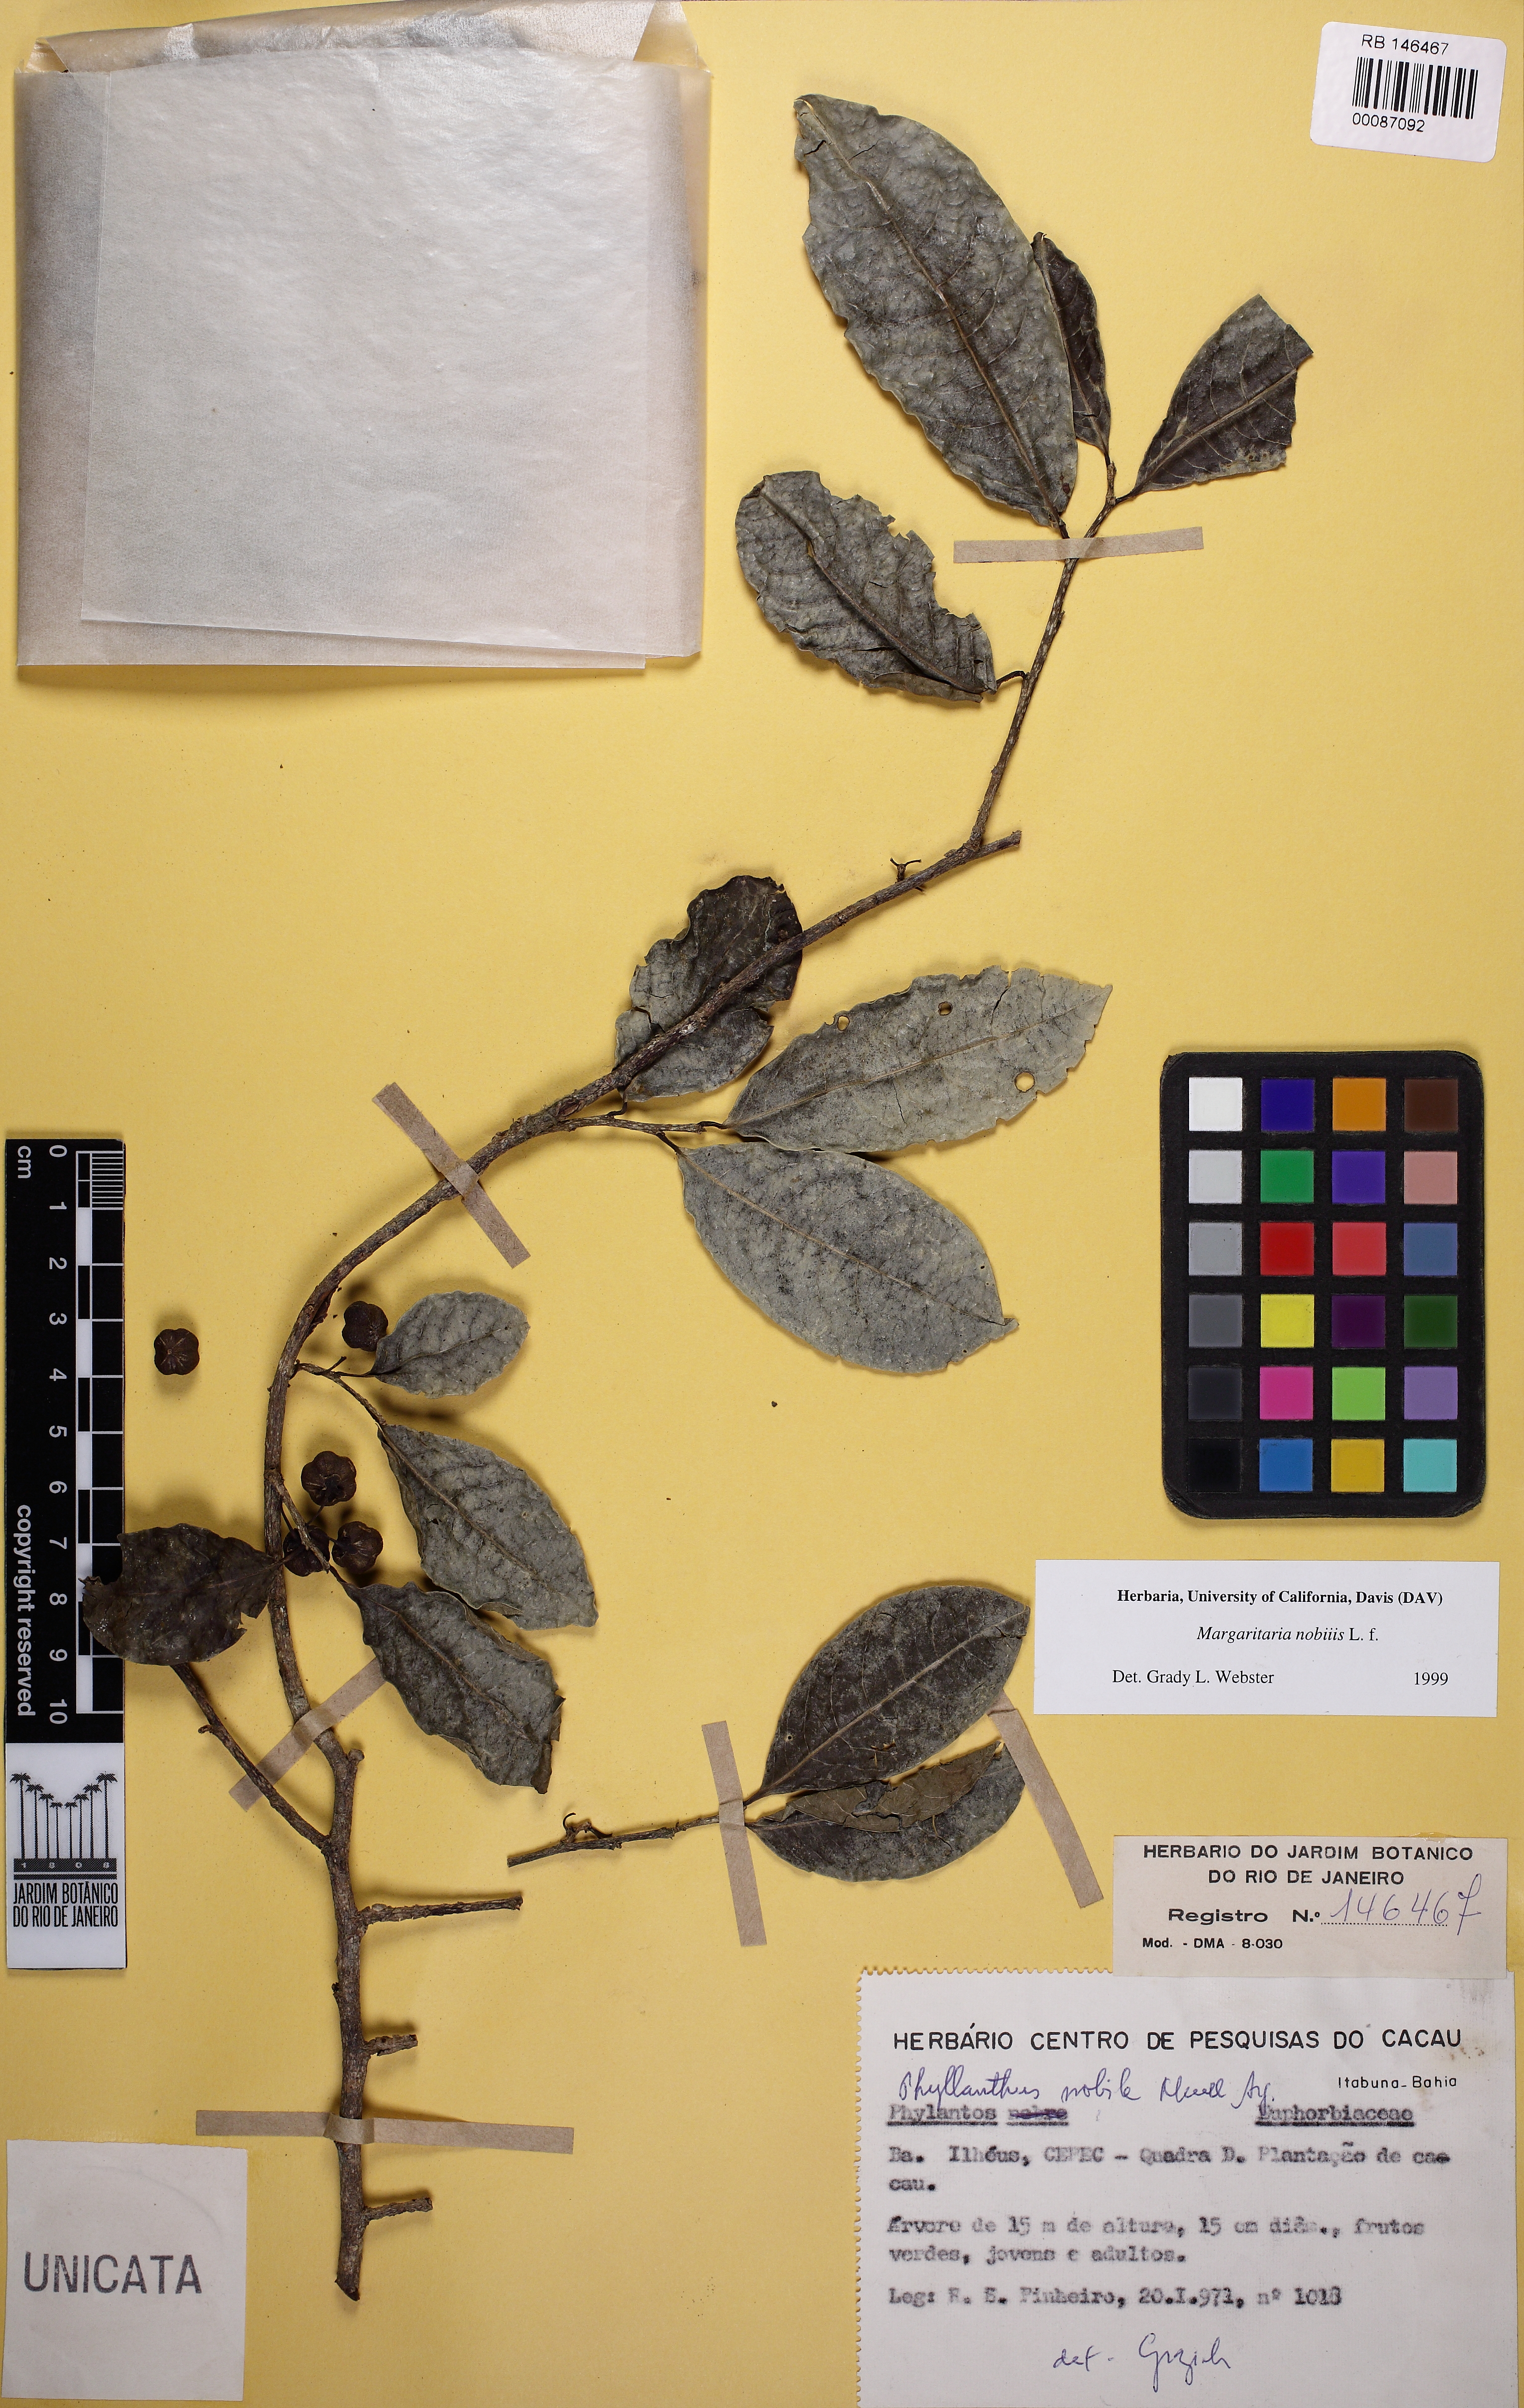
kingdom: Plantae
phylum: Tracheophyta
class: Magnoliopsida
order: Malpighiales
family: Phyllanthaceae
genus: Margaritaria
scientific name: Margaritaria nobilis
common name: Goose berry
